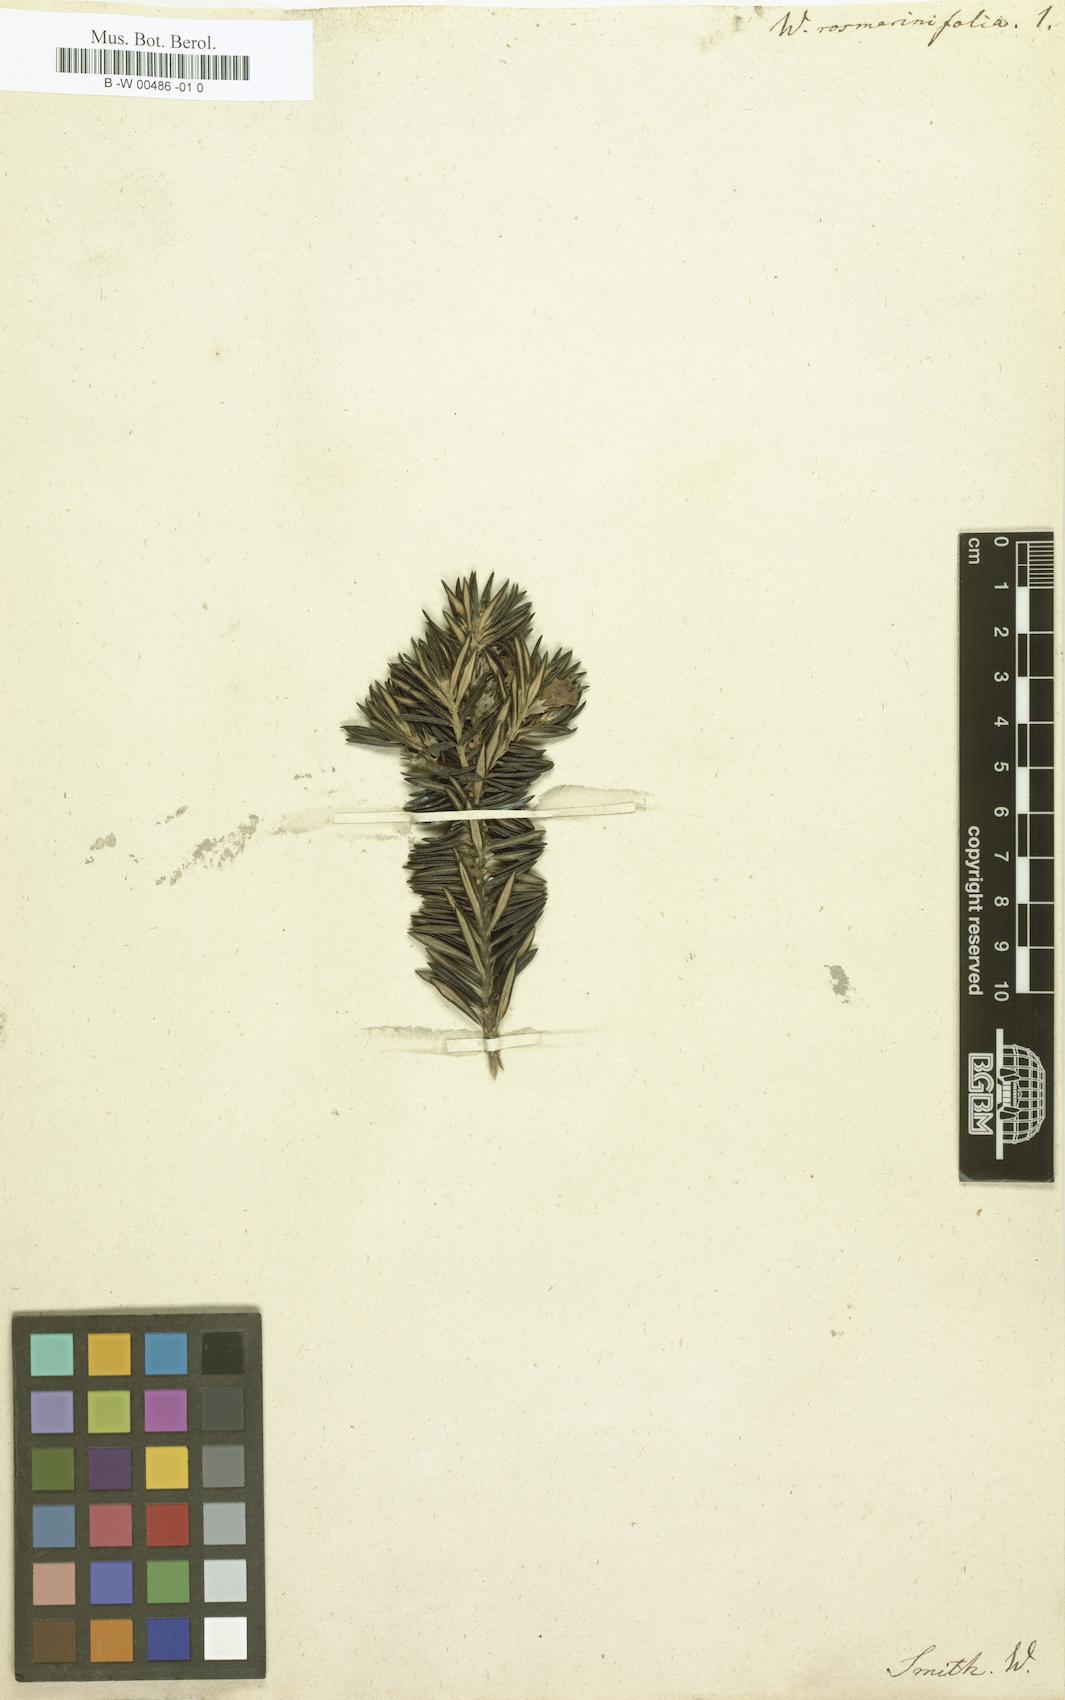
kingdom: Plantae
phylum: Tracheophyta
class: Magnoliopsida
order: Lamiales
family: Lamiaceae
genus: Westringia
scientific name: Westringia fruticosa
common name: Coastal-rosemary
